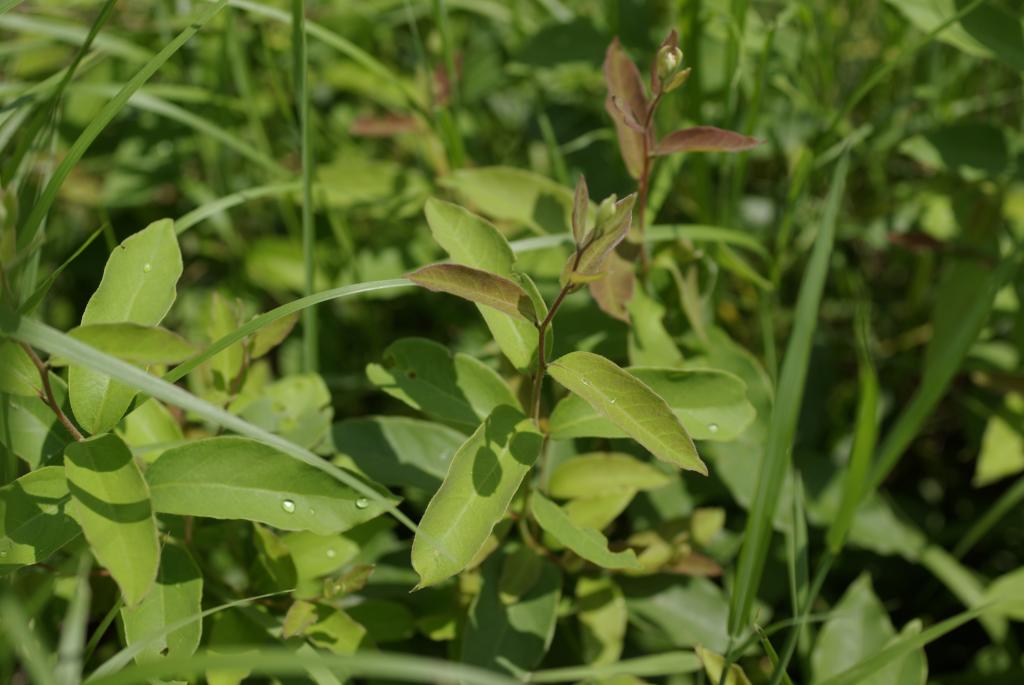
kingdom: Plantae
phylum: Tracheophyta
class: Magnoliopsida
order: Laurales
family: Lauraceae
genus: Lindera
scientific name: Lindera glauca
